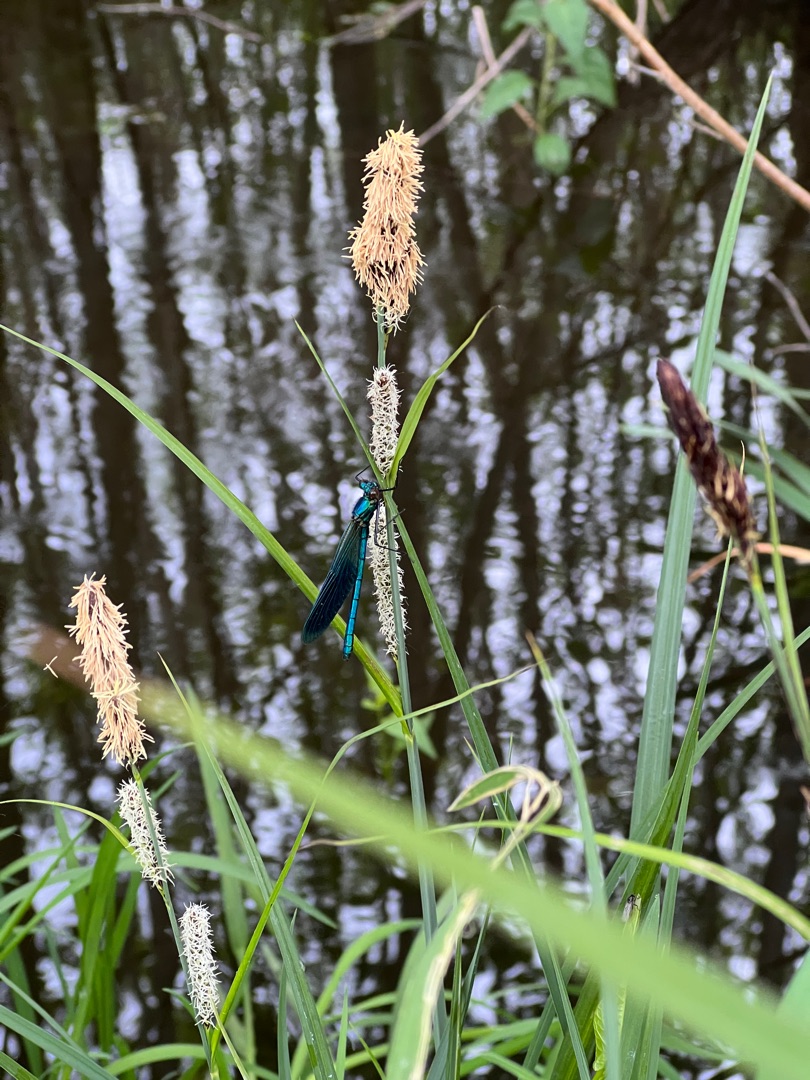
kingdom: Animalia
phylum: Arthropoda
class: Insecta
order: Odonata
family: Calopterygidae
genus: Calopteryx
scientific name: Calopteryx splendens
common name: Blåbåndet pragtvandnymfe
